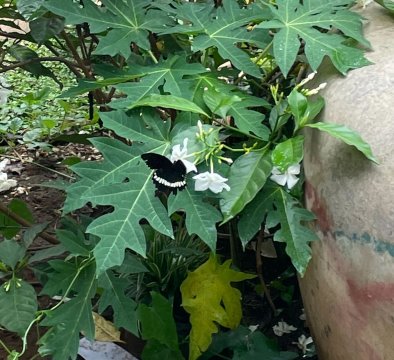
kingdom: Animalia
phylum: Arthropoda
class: Insecta
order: Lepidoptera
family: Papilionidae
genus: Papilio
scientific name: Papilio polytes
